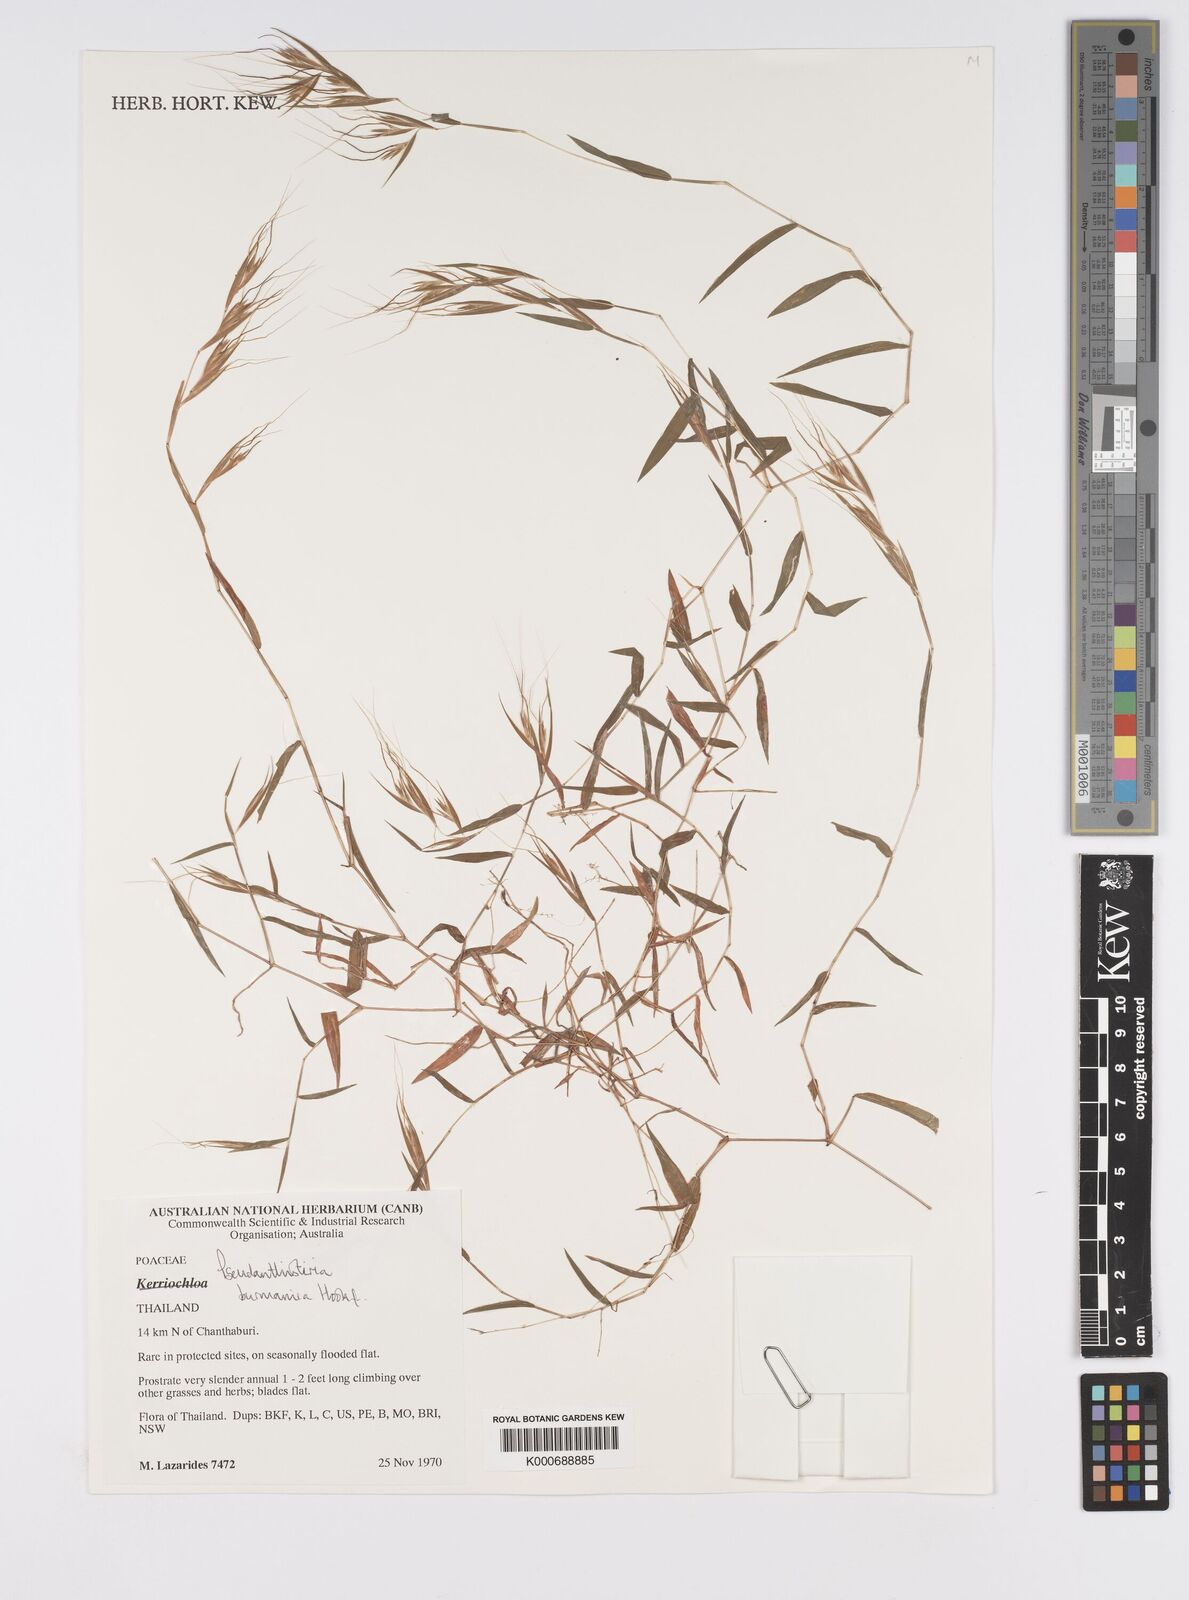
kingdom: Plantae
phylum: Tracheophyta
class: Liliopsida
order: Poales
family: Poaceae
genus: Pseudanthistiria
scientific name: Pseudanthistiria umbellata
